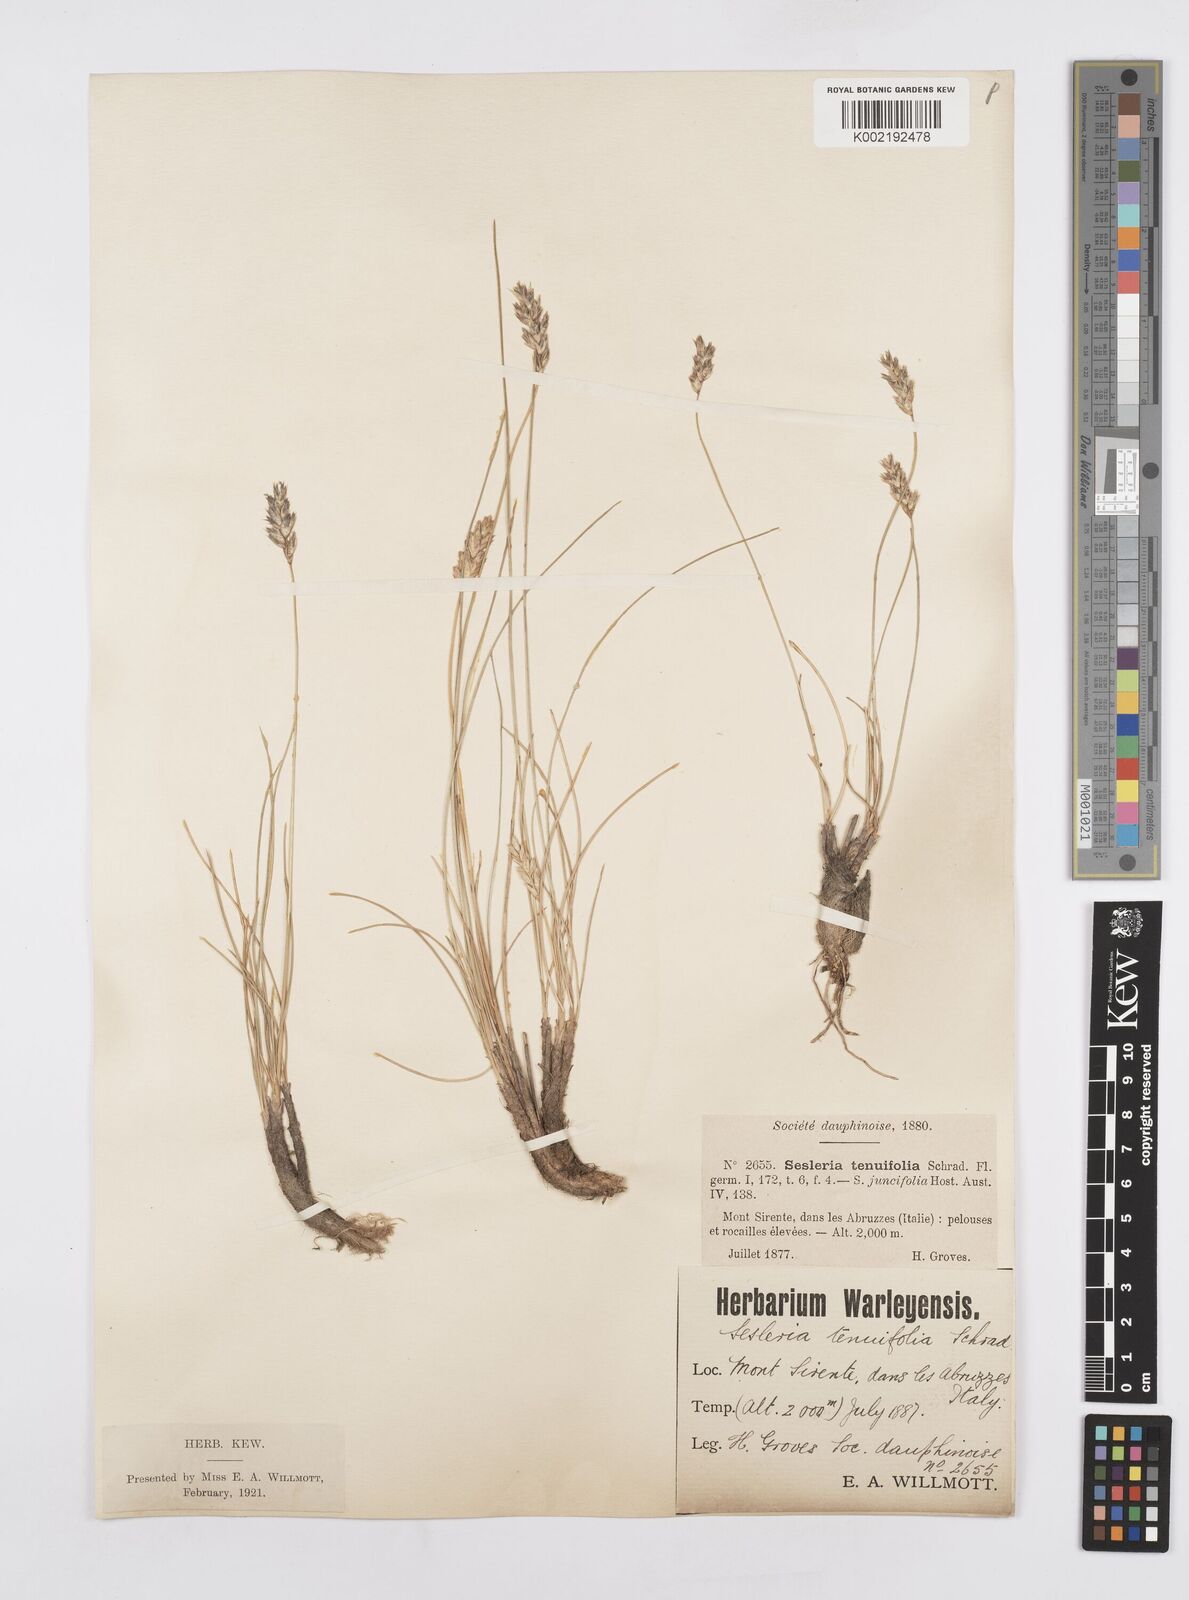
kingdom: Plantae
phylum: Tracheophyta
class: Liliopsida
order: Poales
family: Poaceae
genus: Sesleria
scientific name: Sesleria juncifolia
